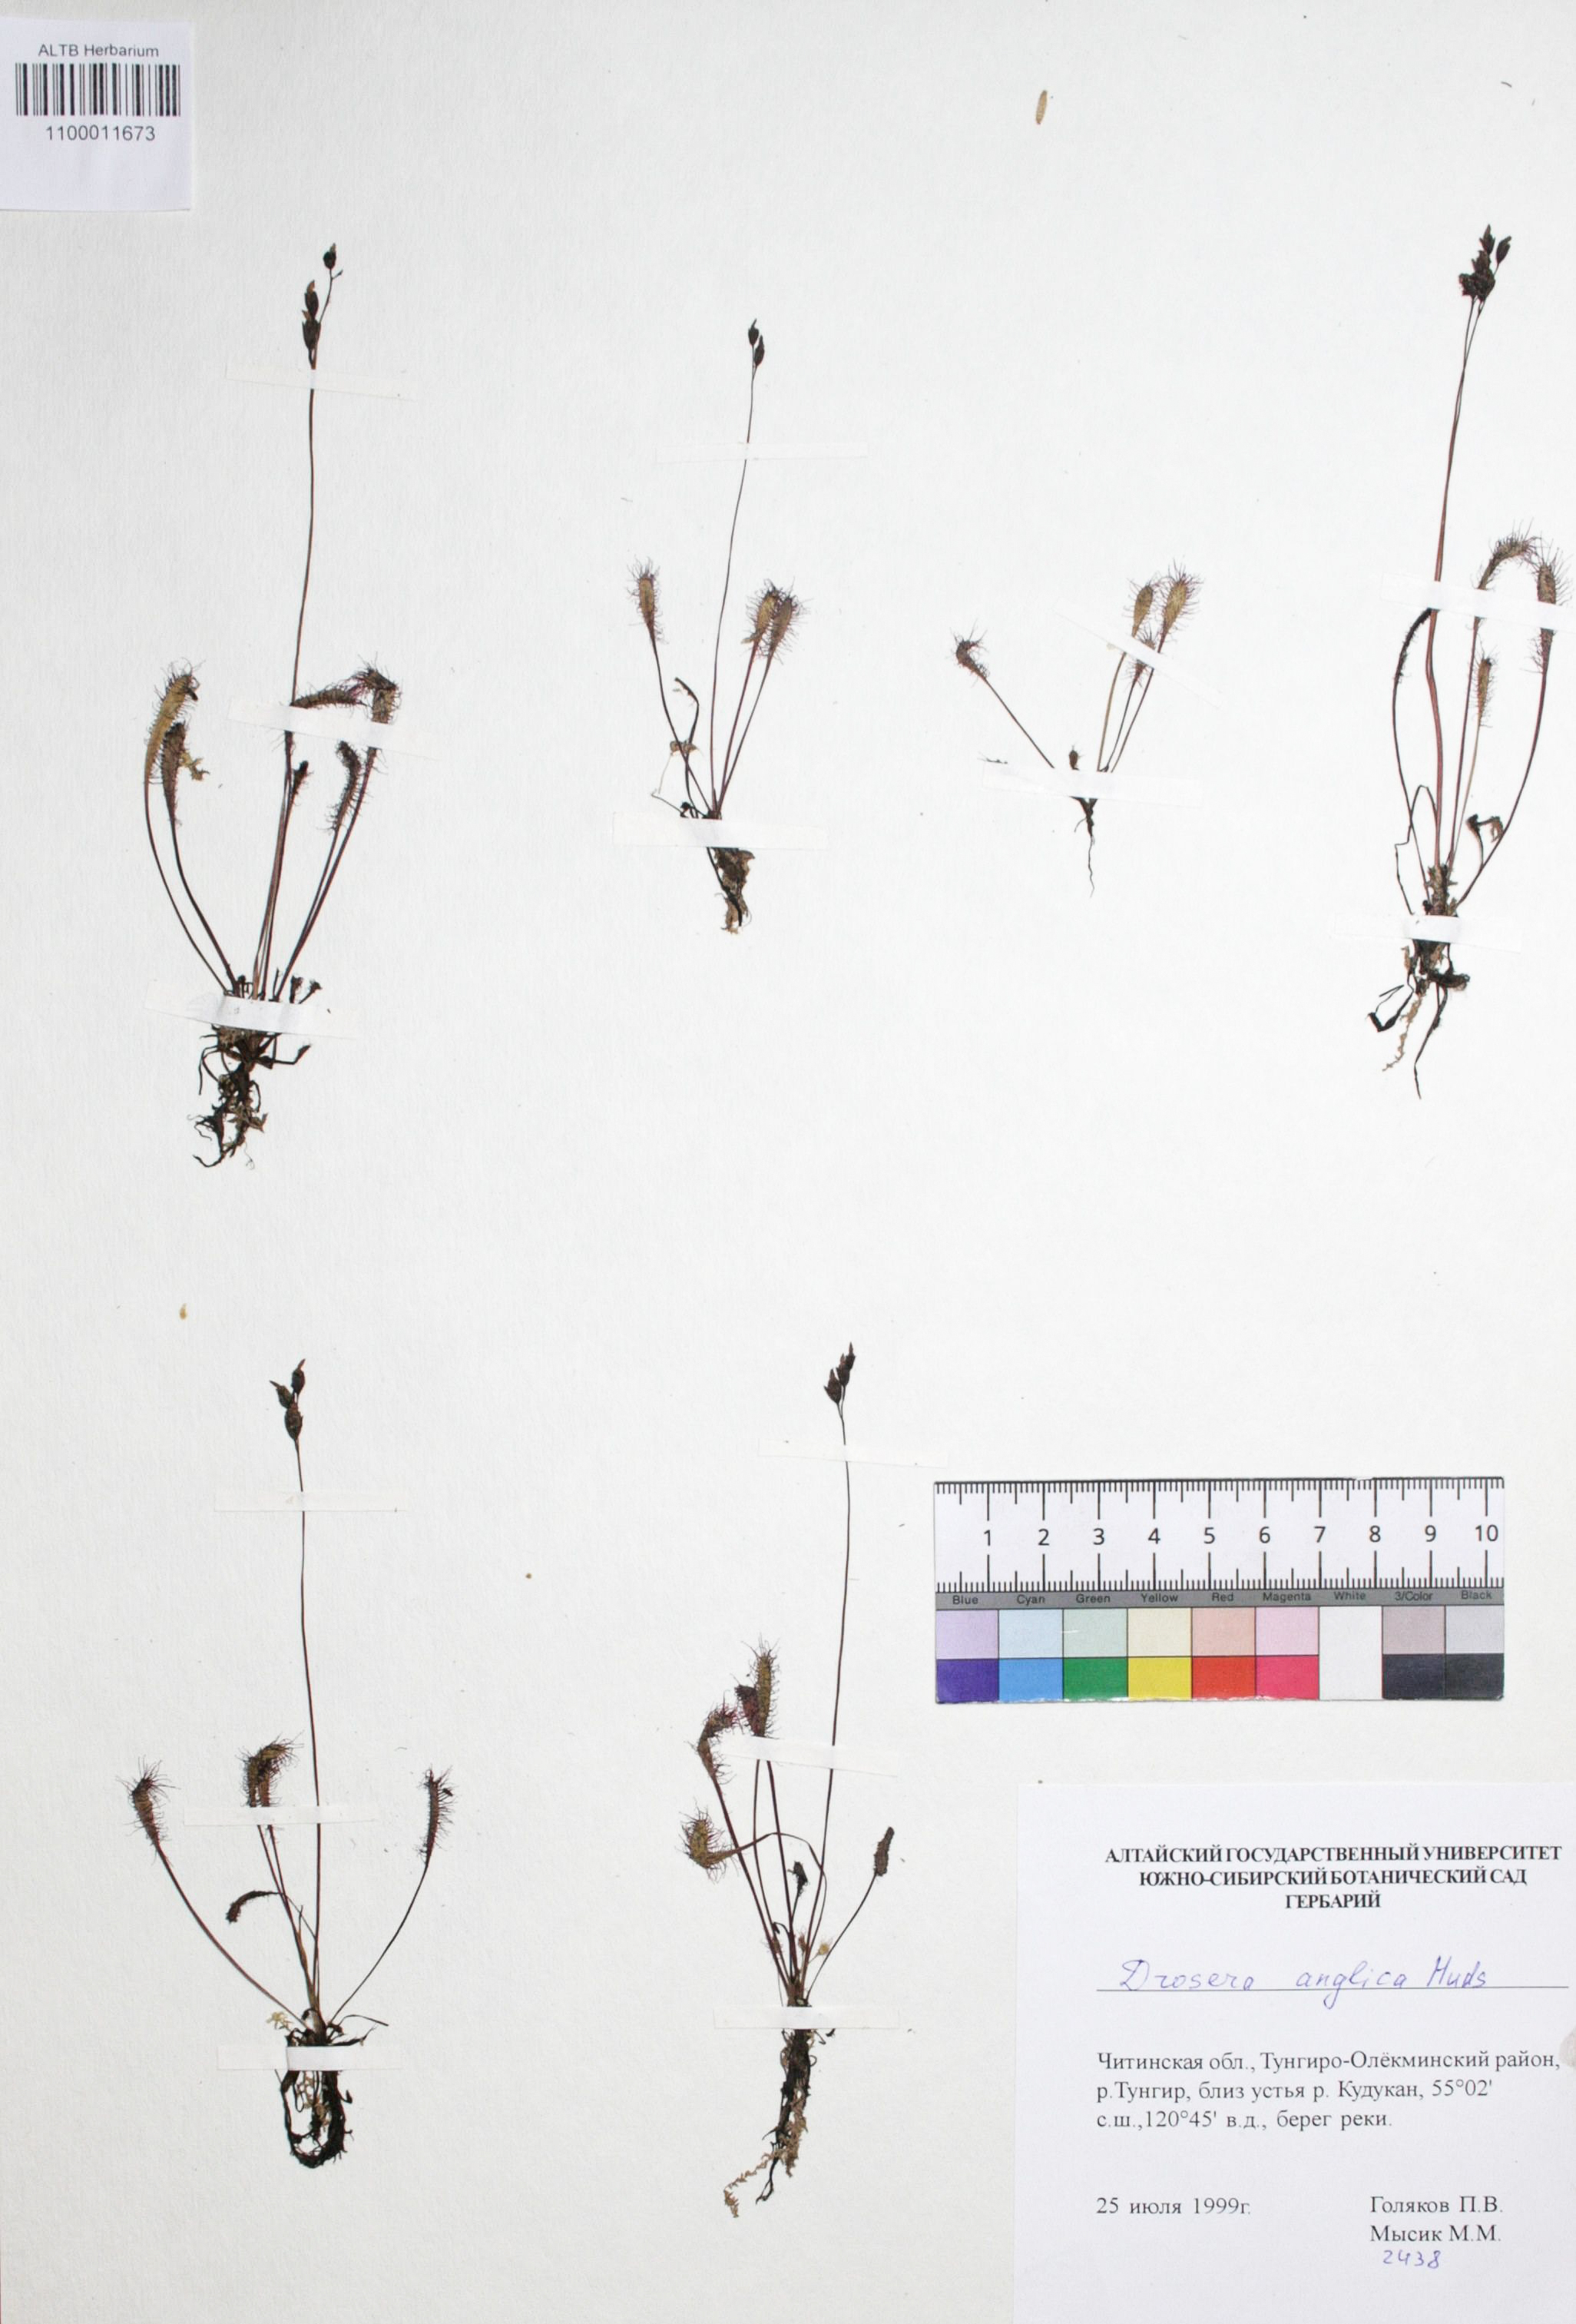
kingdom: Plantae
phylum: Tracheophyta
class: Magnoliopsida
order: Caryophyllales
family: Droseraceae
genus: Drosera
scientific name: Drosera anglica
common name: Great sundew
